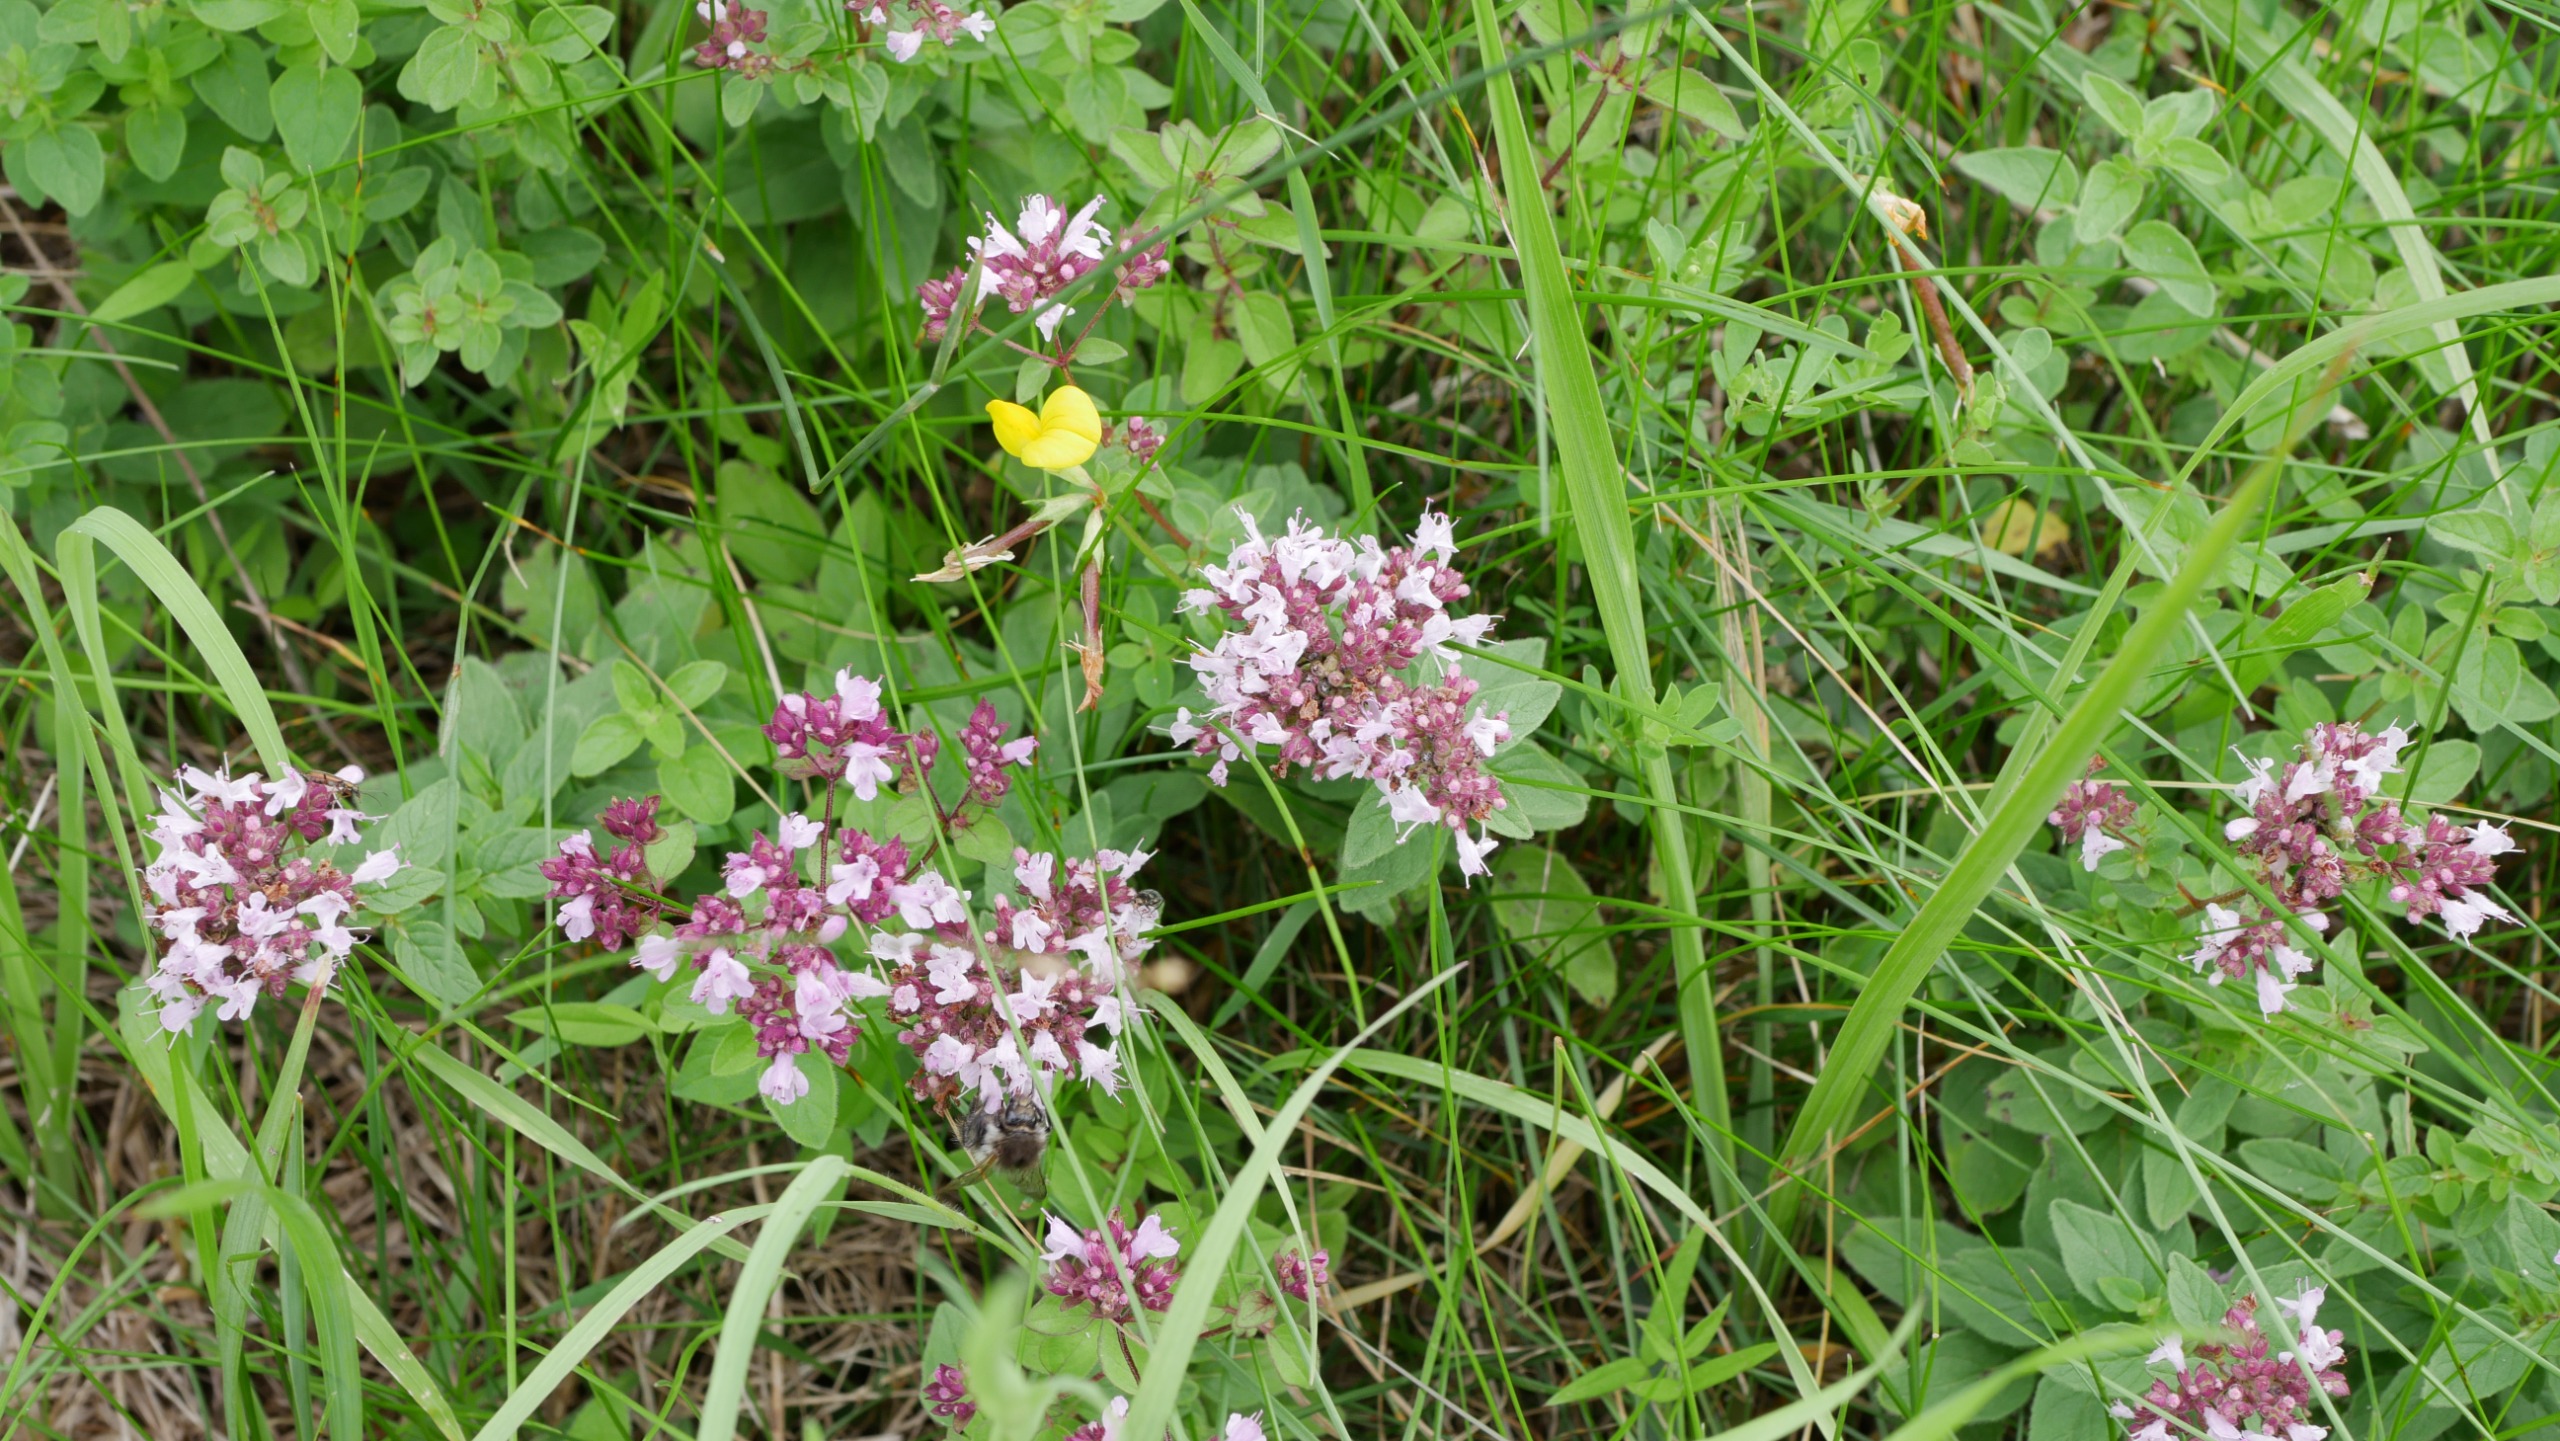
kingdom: Plantae
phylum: Tracheophyta
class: Magnoliopsida
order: Lamiales
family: Lamiaceae
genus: Origanum
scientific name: Origanum vulgare
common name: Merian
